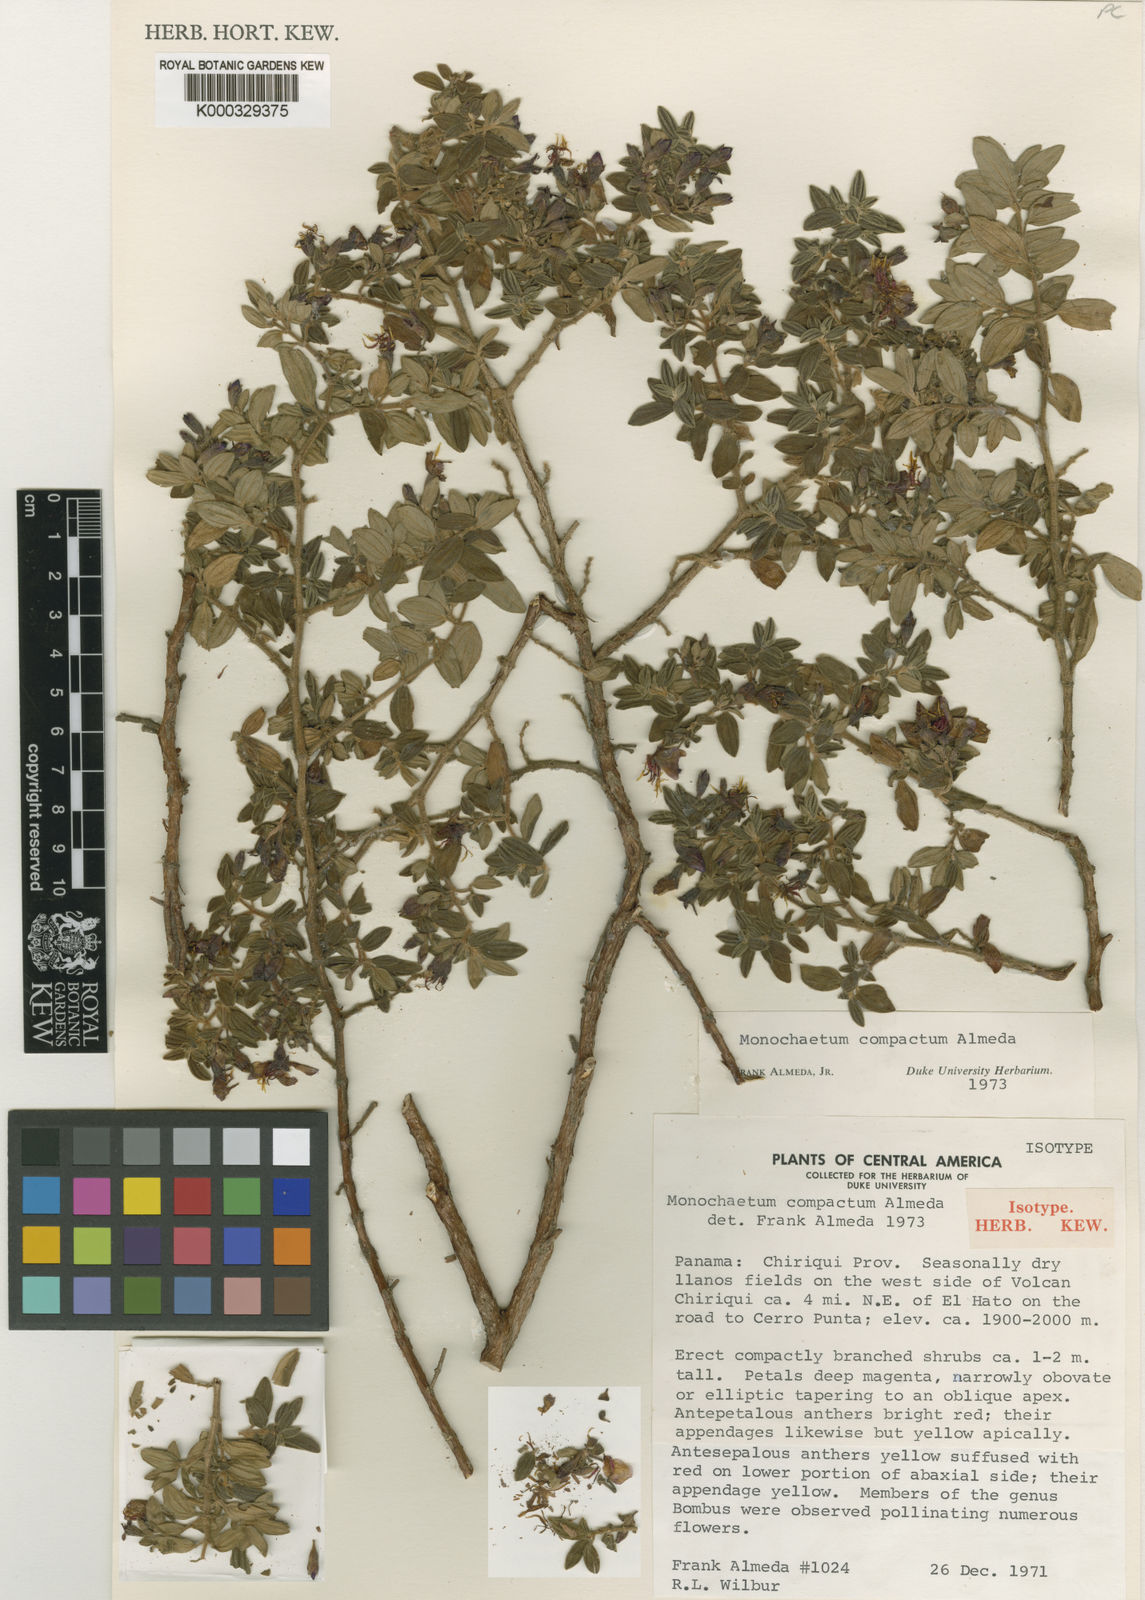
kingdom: Plantae
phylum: Tracheophyta
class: Magnoliopsida
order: Myrtales
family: Melastomataceae
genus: Monochaetum
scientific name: Monochaetum compactum
